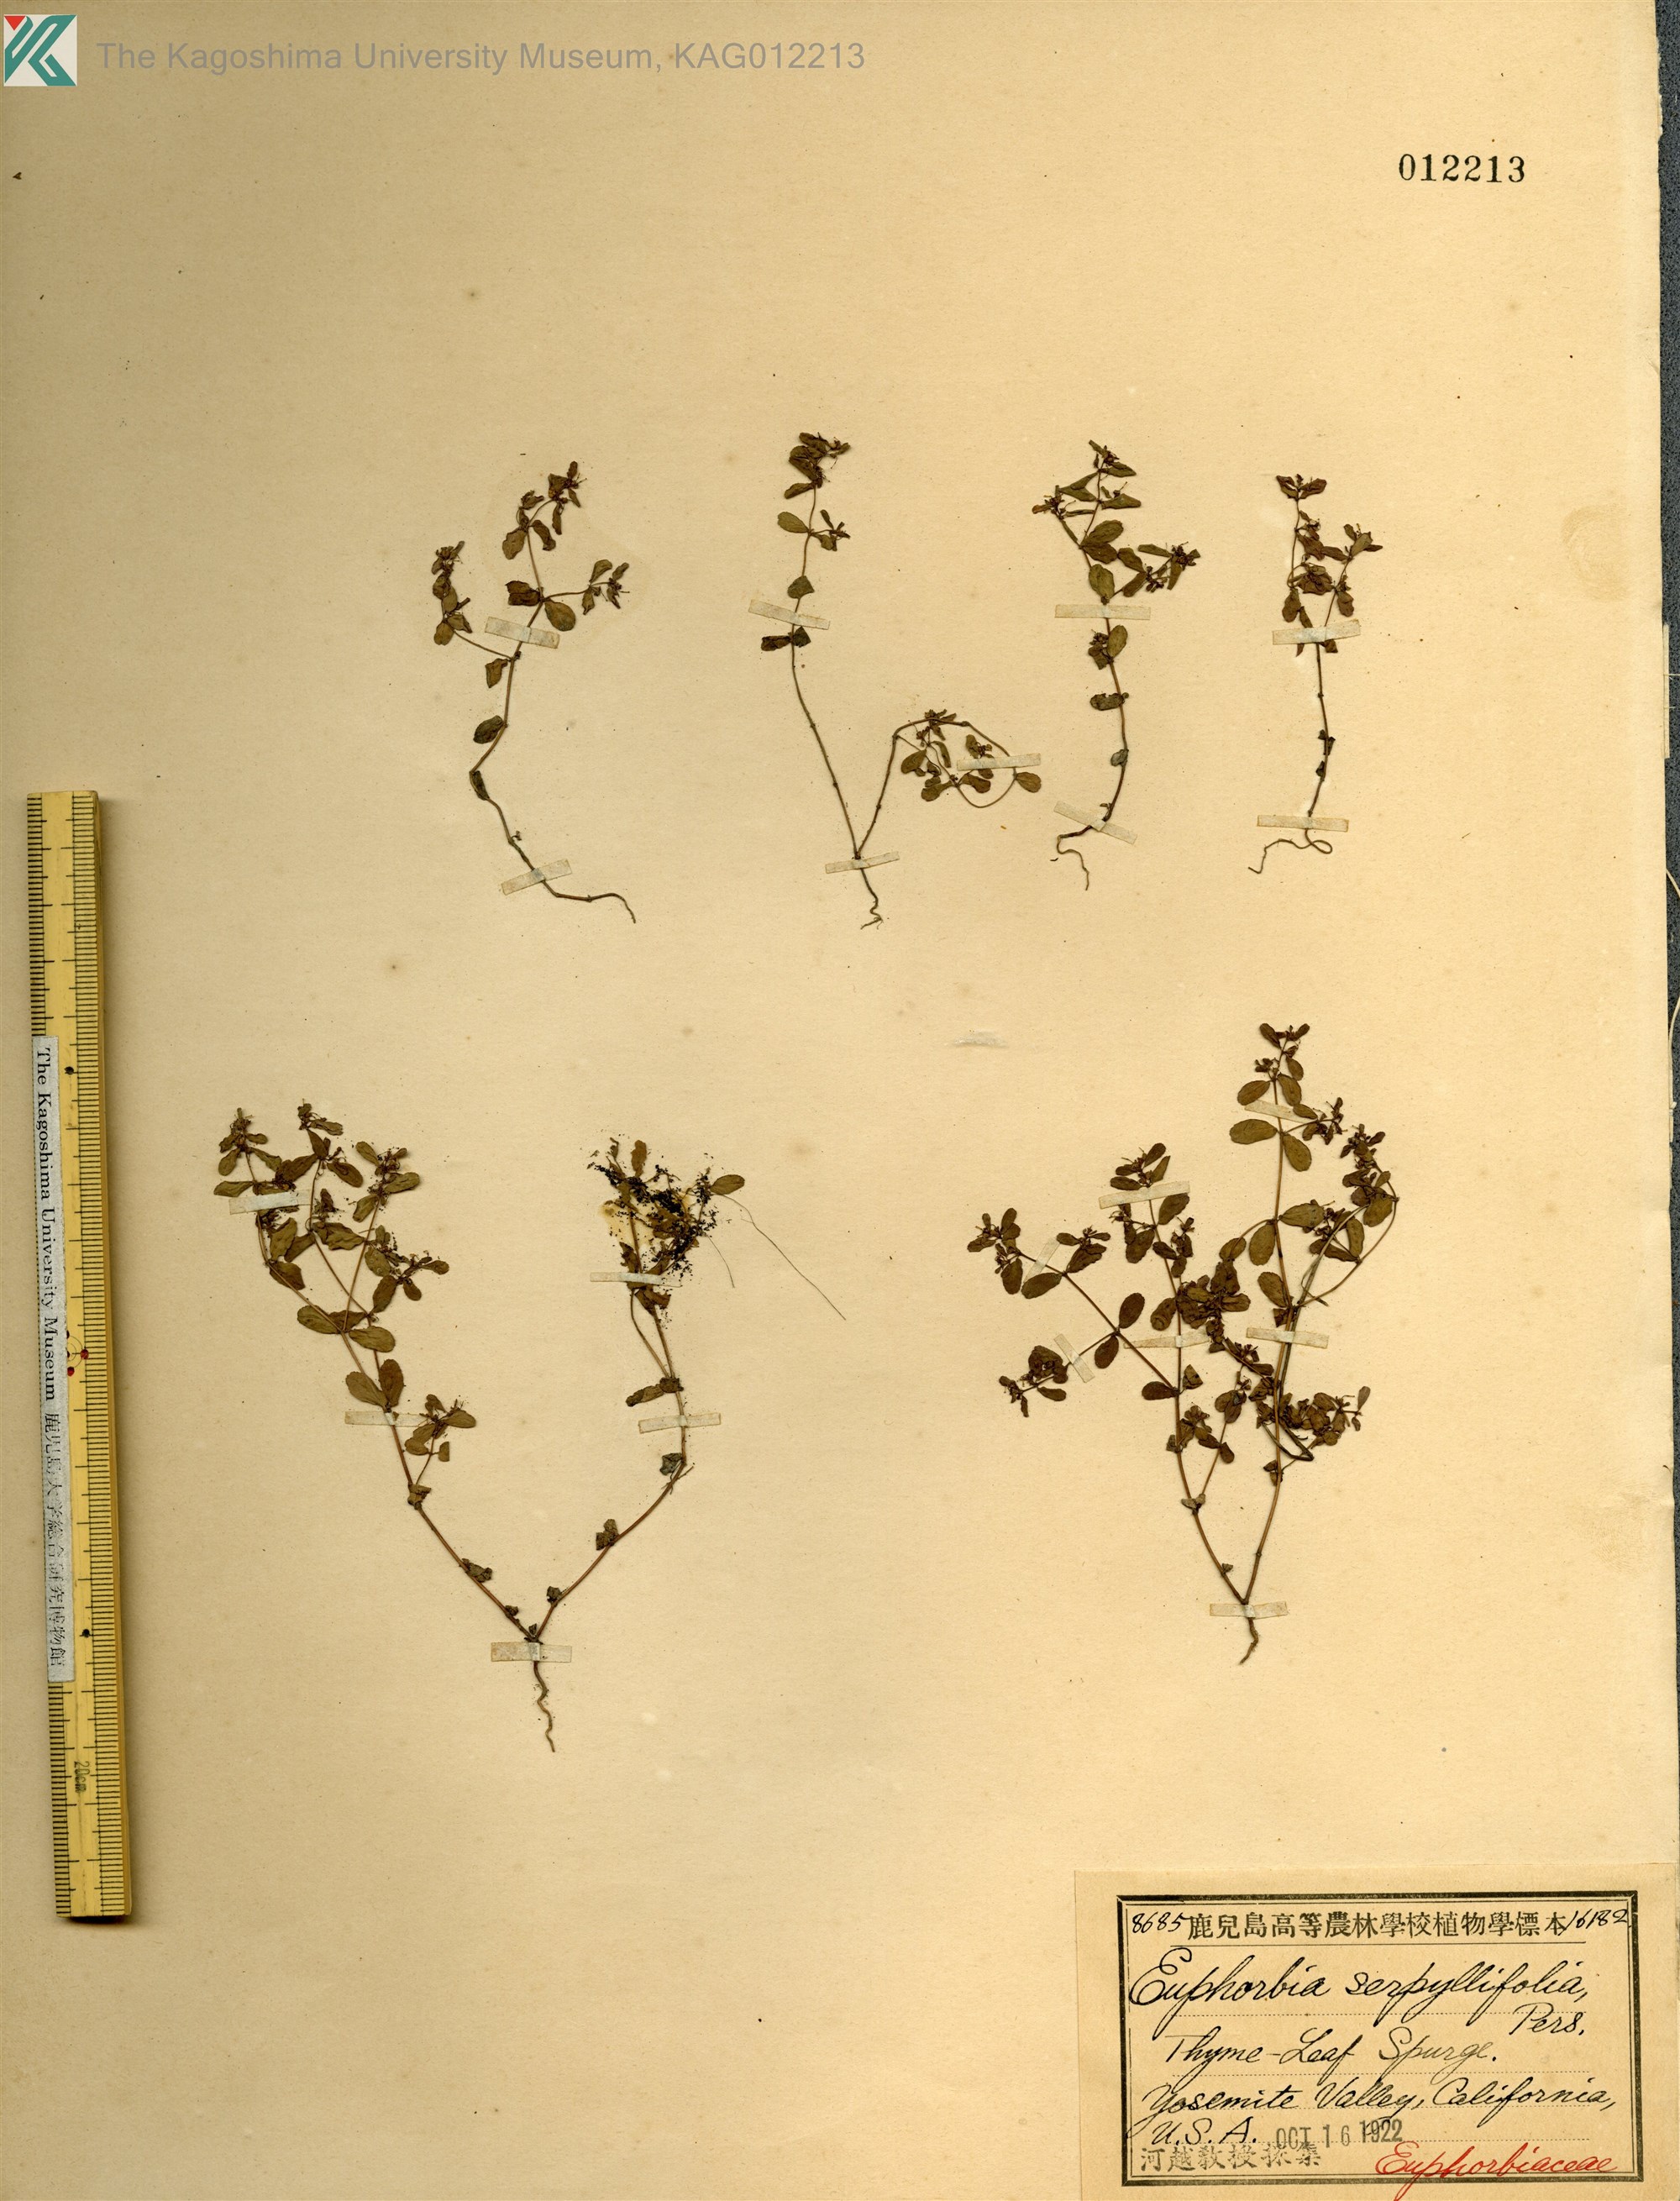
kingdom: Plantae
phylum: Tracheophyta
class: Magnoliopsida
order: Malpighiales
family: Euphorbiaceae
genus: Euphorbia
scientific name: Euphorbia serpillifolia
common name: Thyme-leaf spurge
